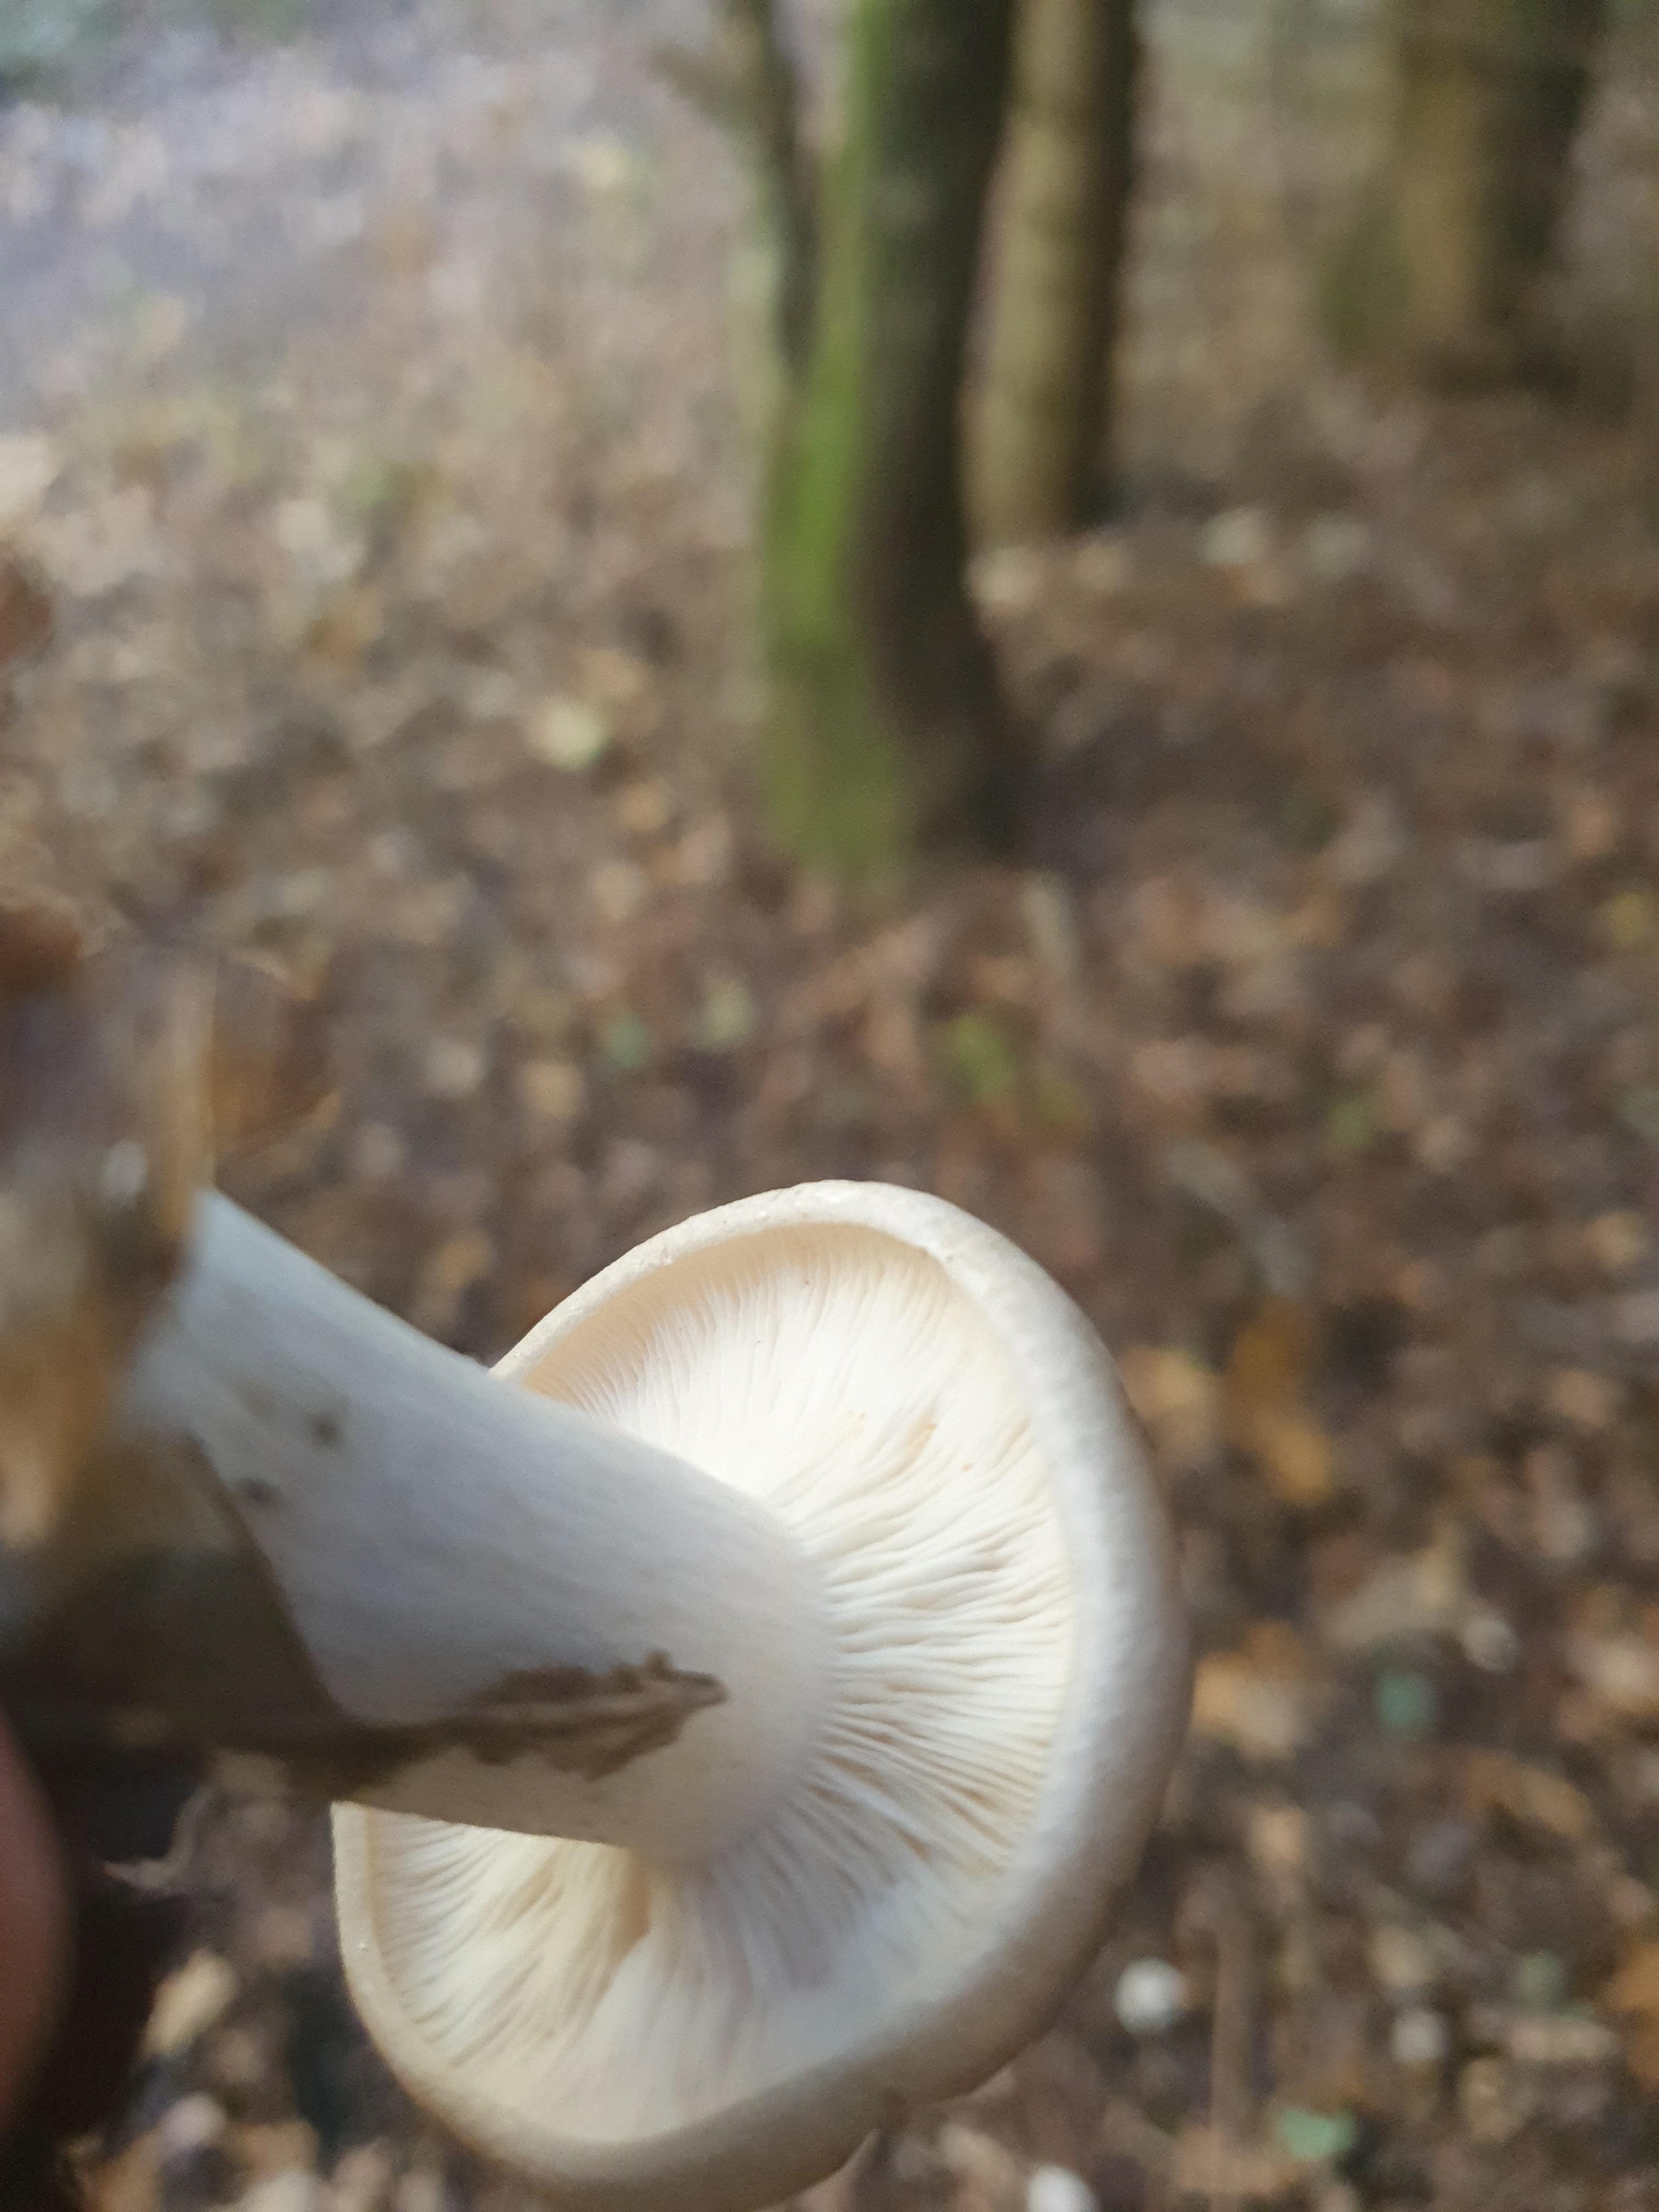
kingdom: Fungi
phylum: Basidiomycota
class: Agaricomycetes
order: Agaricales
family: Tricholomataceae
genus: Clitocybe
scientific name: Clitocybe nebularis
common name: tåge-tragthat
